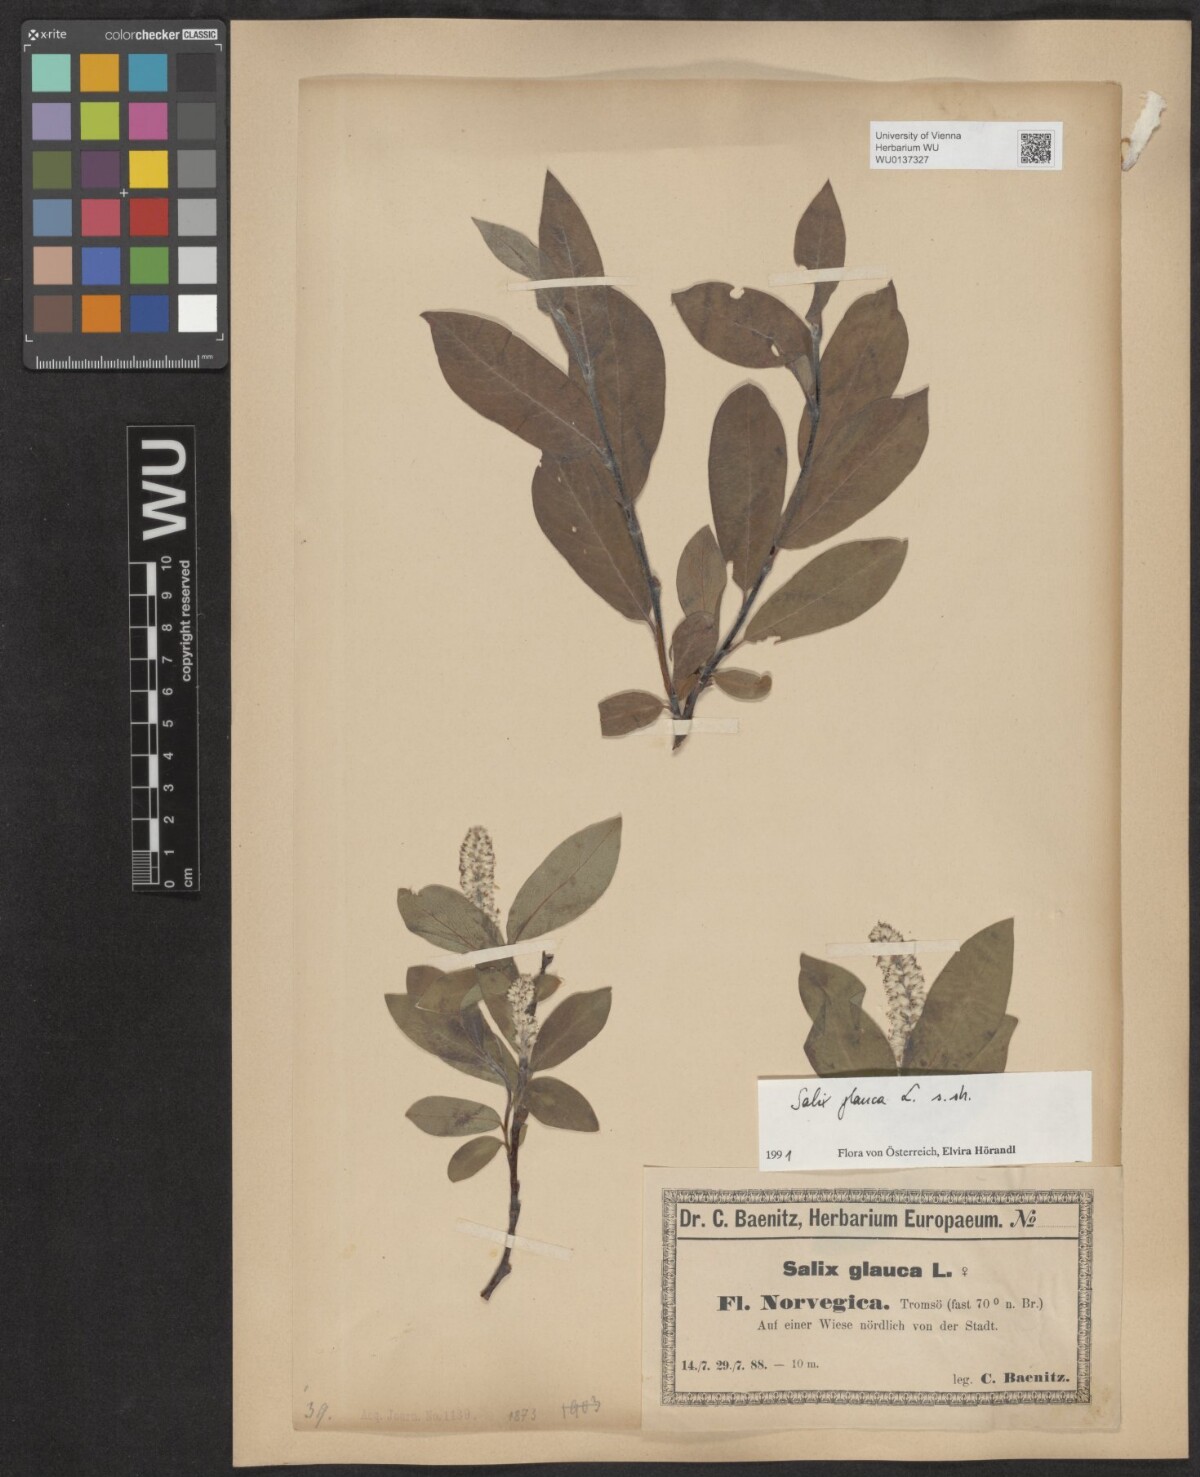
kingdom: Plantae
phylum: Tracheophyta
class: Magnoliopsida
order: Malpighiales
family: Salicaceae
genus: Salix
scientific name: Salix glauca
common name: Glaucous willow
